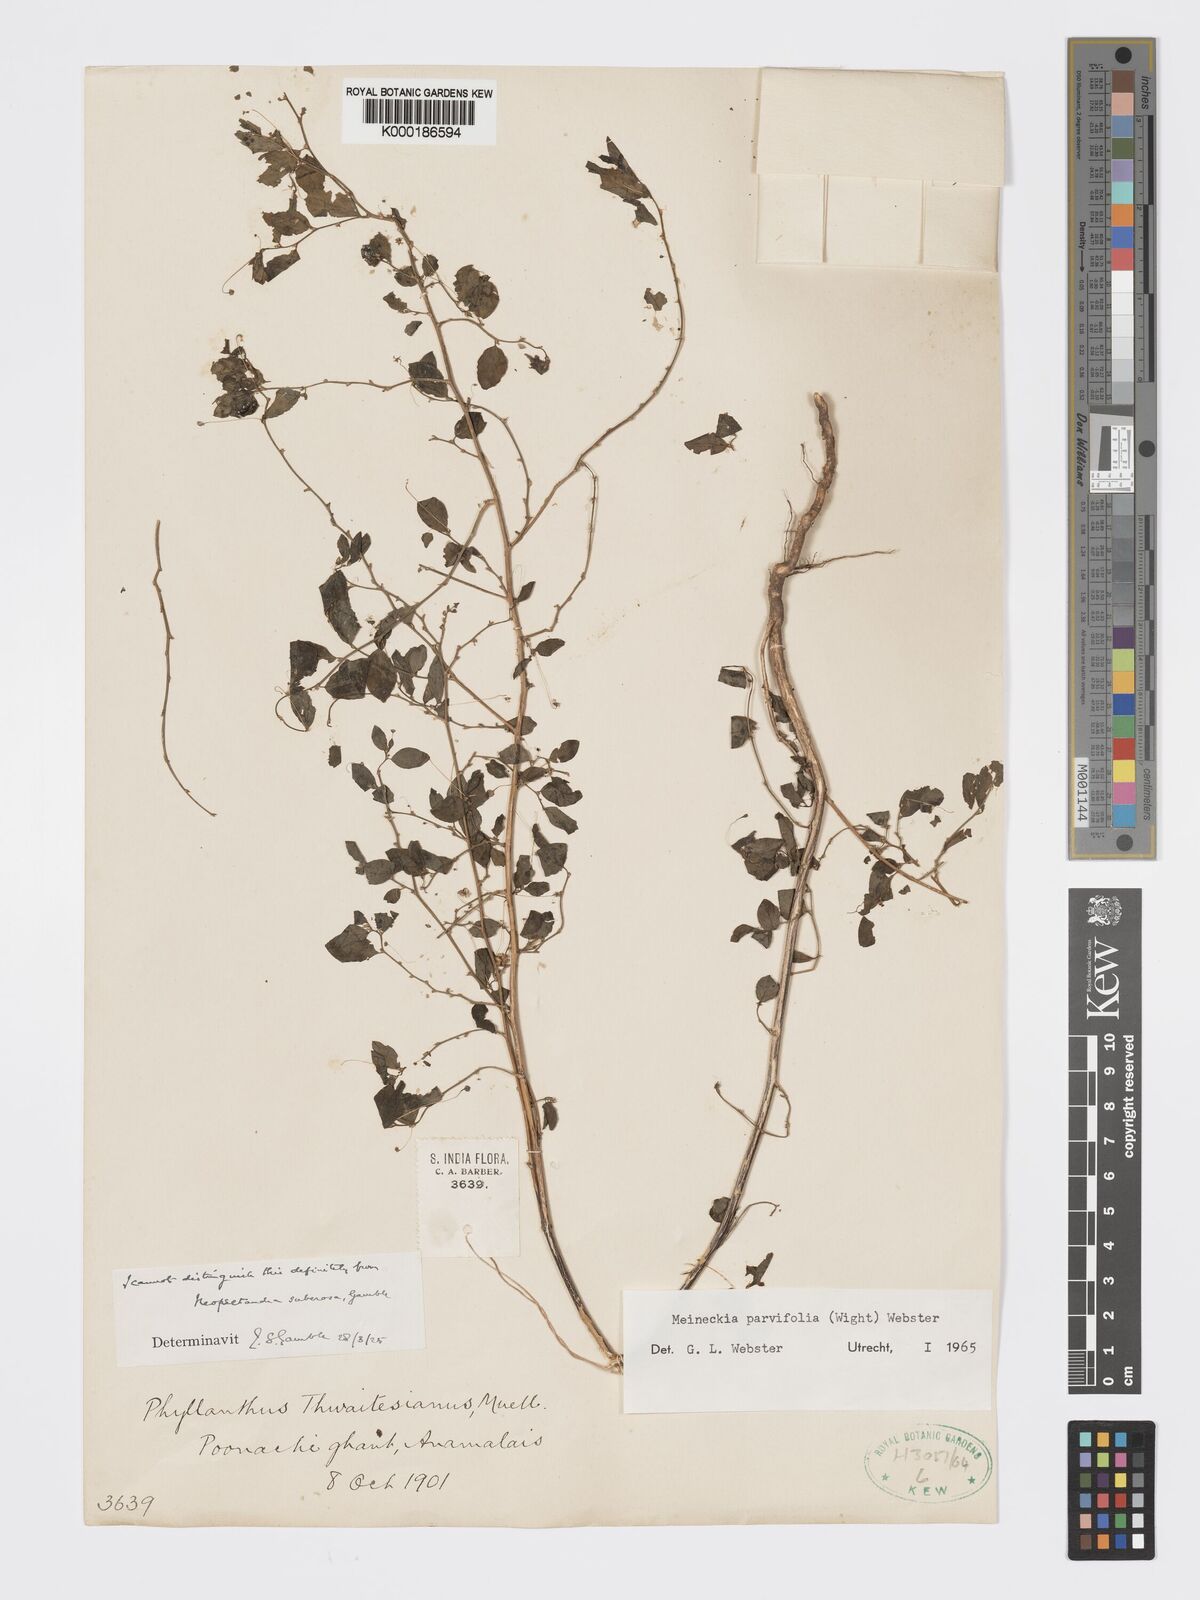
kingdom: Plantae
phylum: Tracheophyta
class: Magnoliopsida
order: Malpighiales
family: Phyllanthaceae
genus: Meineckia
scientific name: Meineckia parvifolia
